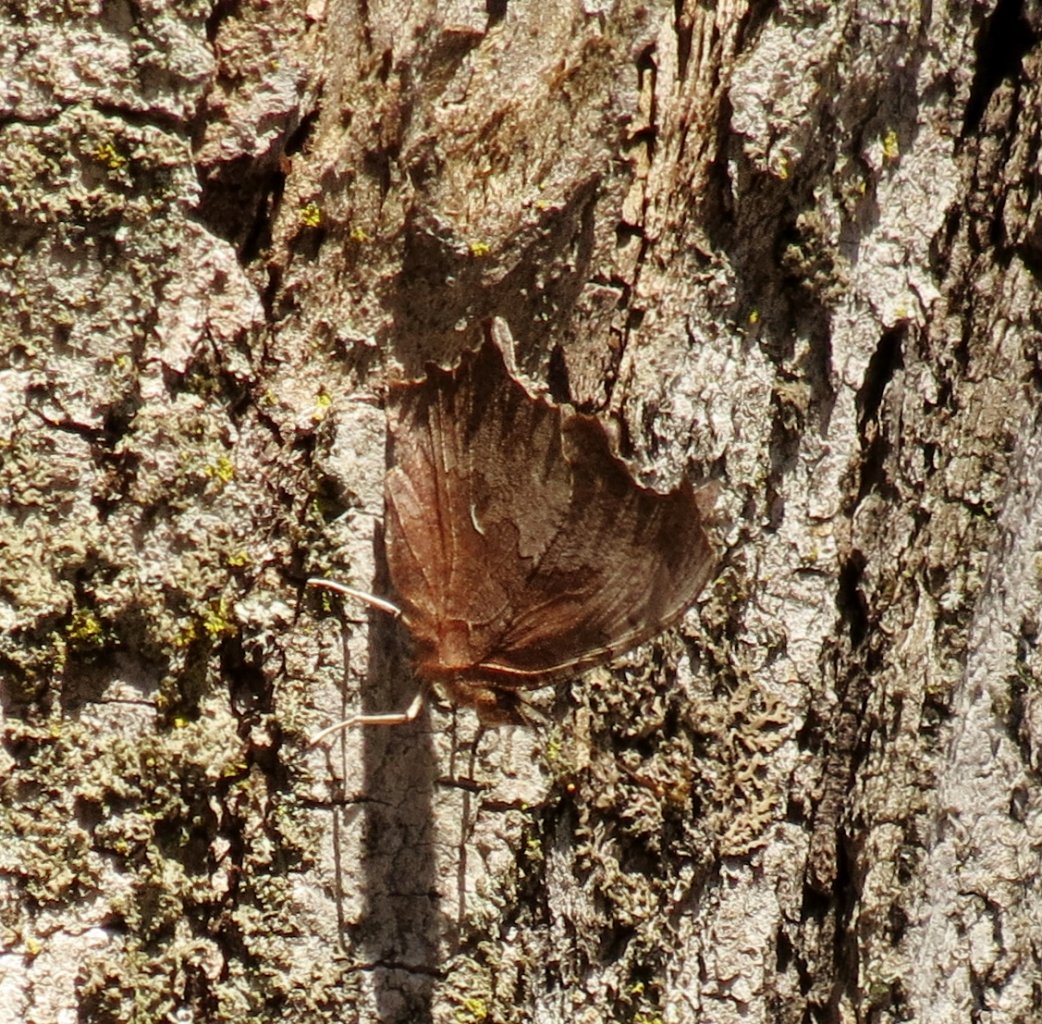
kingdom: Animalia
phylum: Arthropoda
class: Insecta
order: Lepidoptera
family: Nymphalidae
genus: Polygonia
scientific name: Polygonia comma
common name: Eastern Comma
